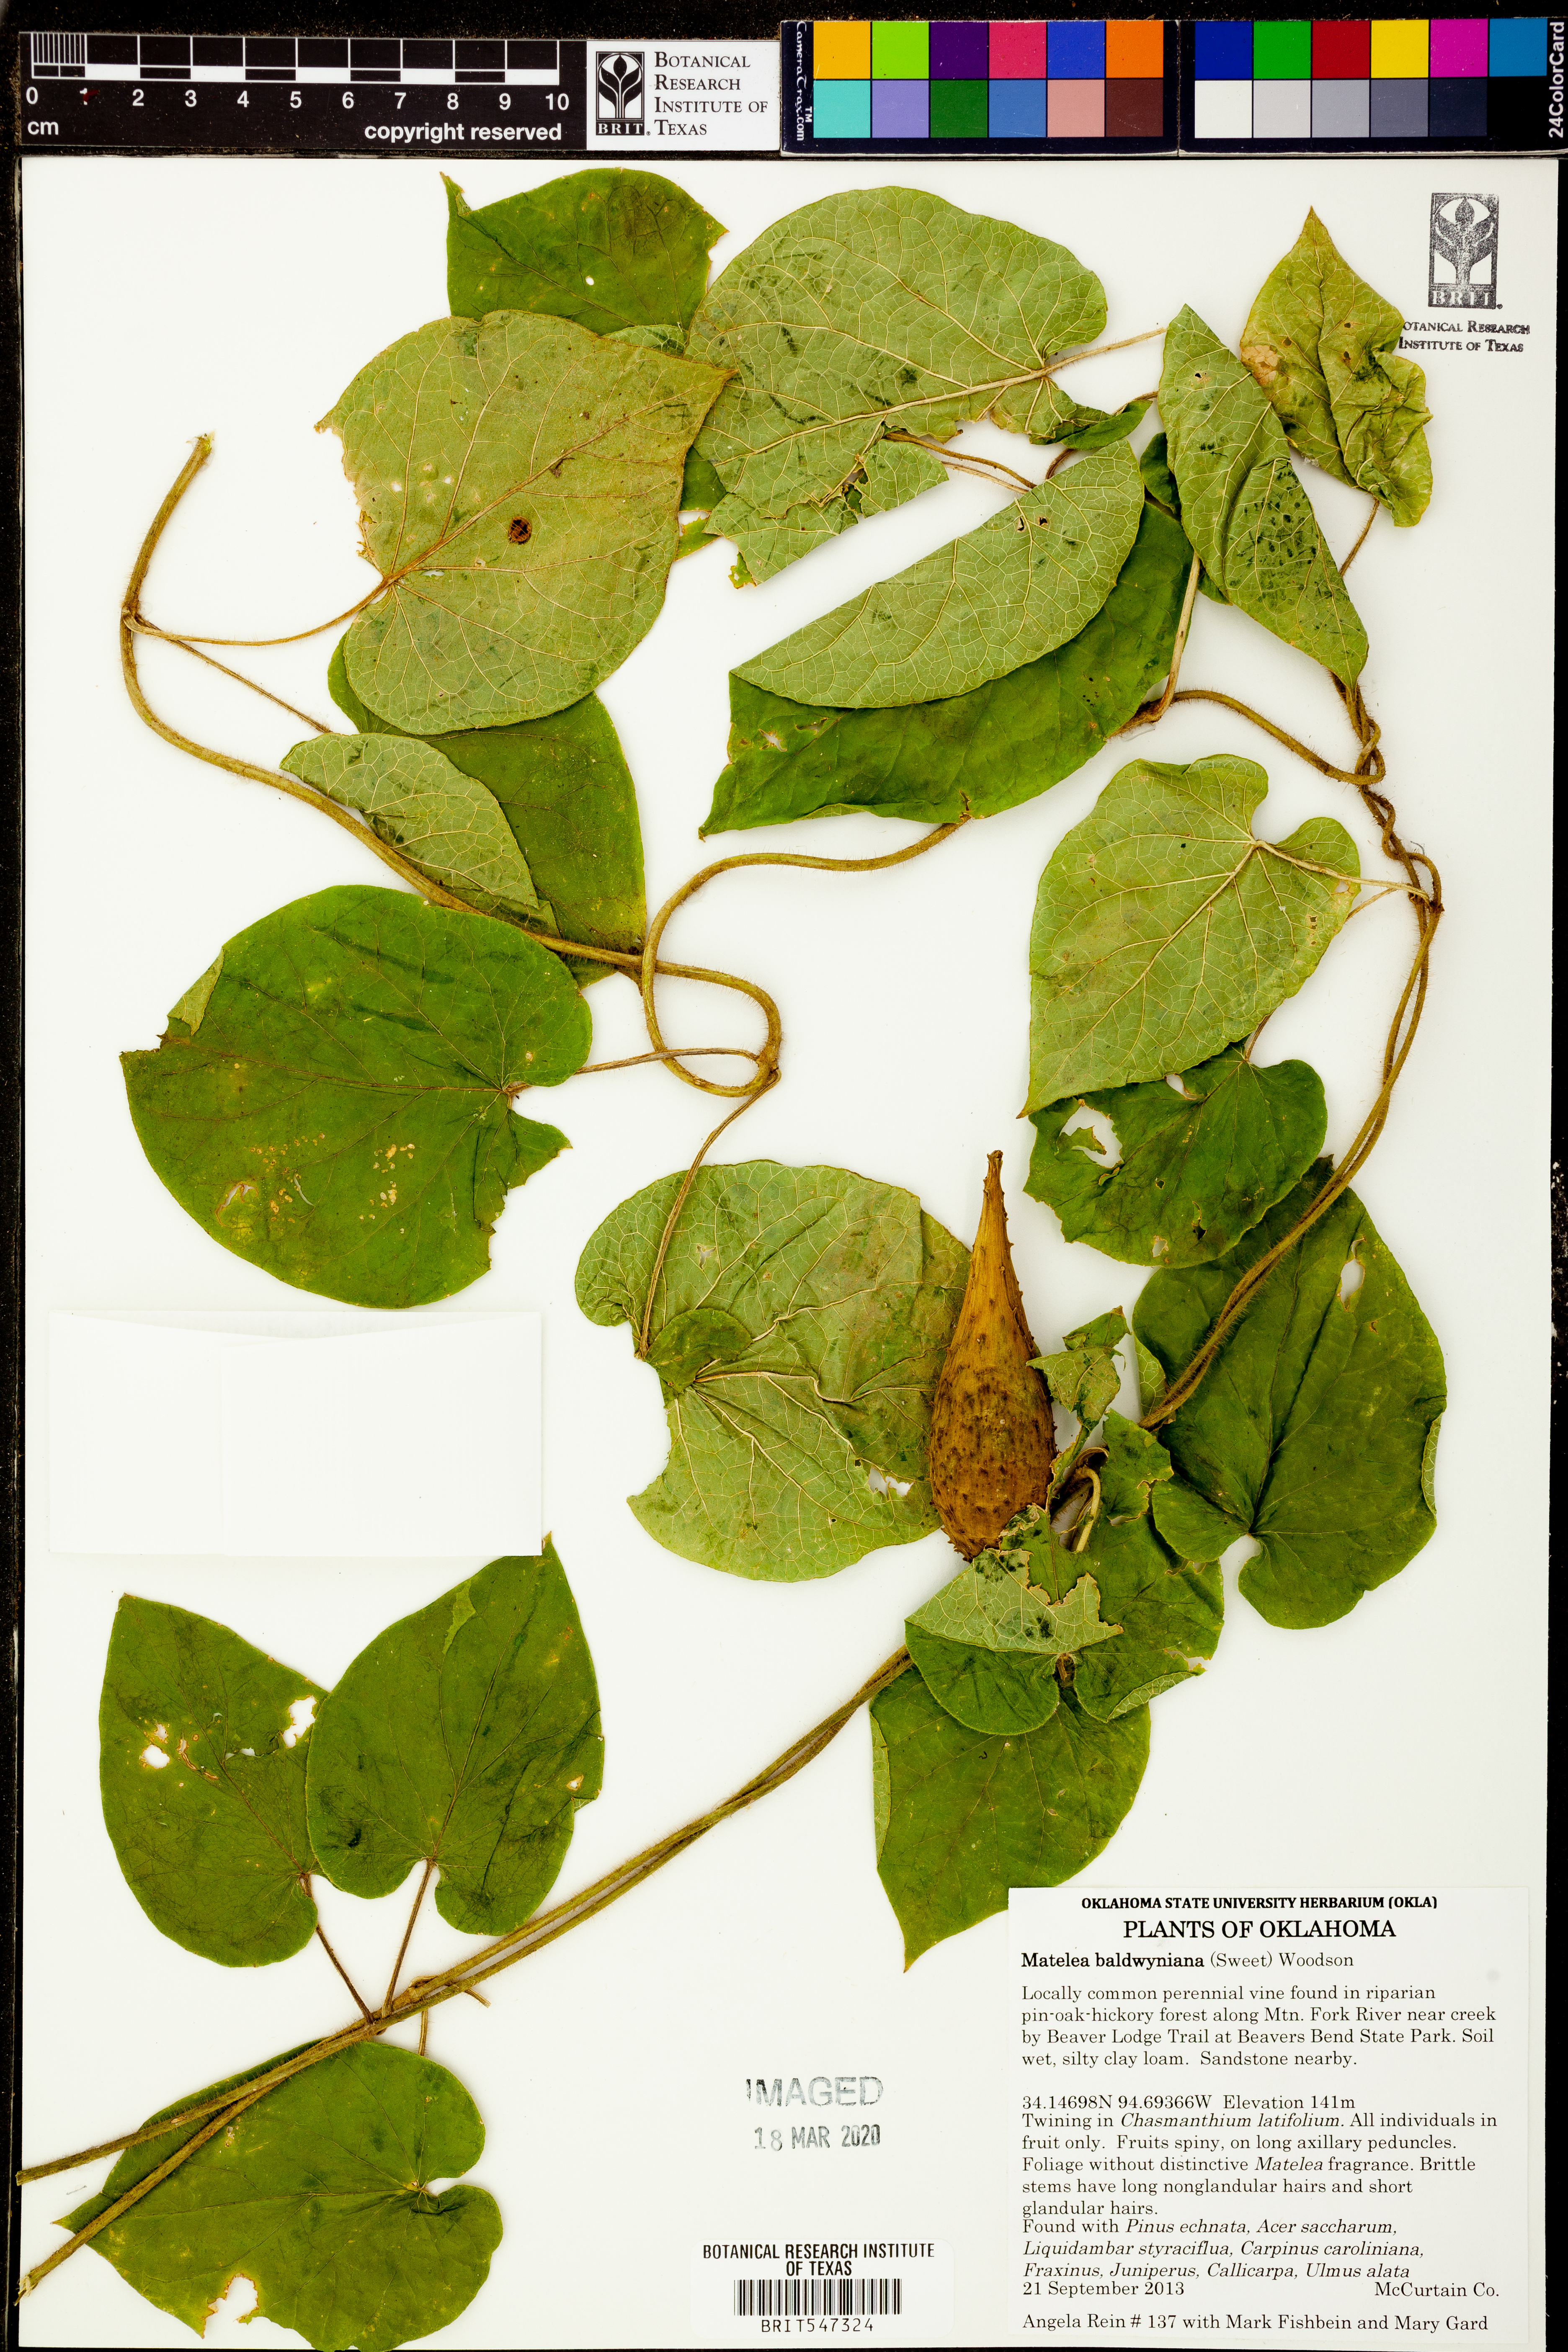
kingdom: Plantae
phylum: Tracheophyta
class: Magnoliopsida
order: Gentianales
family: Apocynaceae
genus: Matelea
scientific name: Matelea baldwyniana
